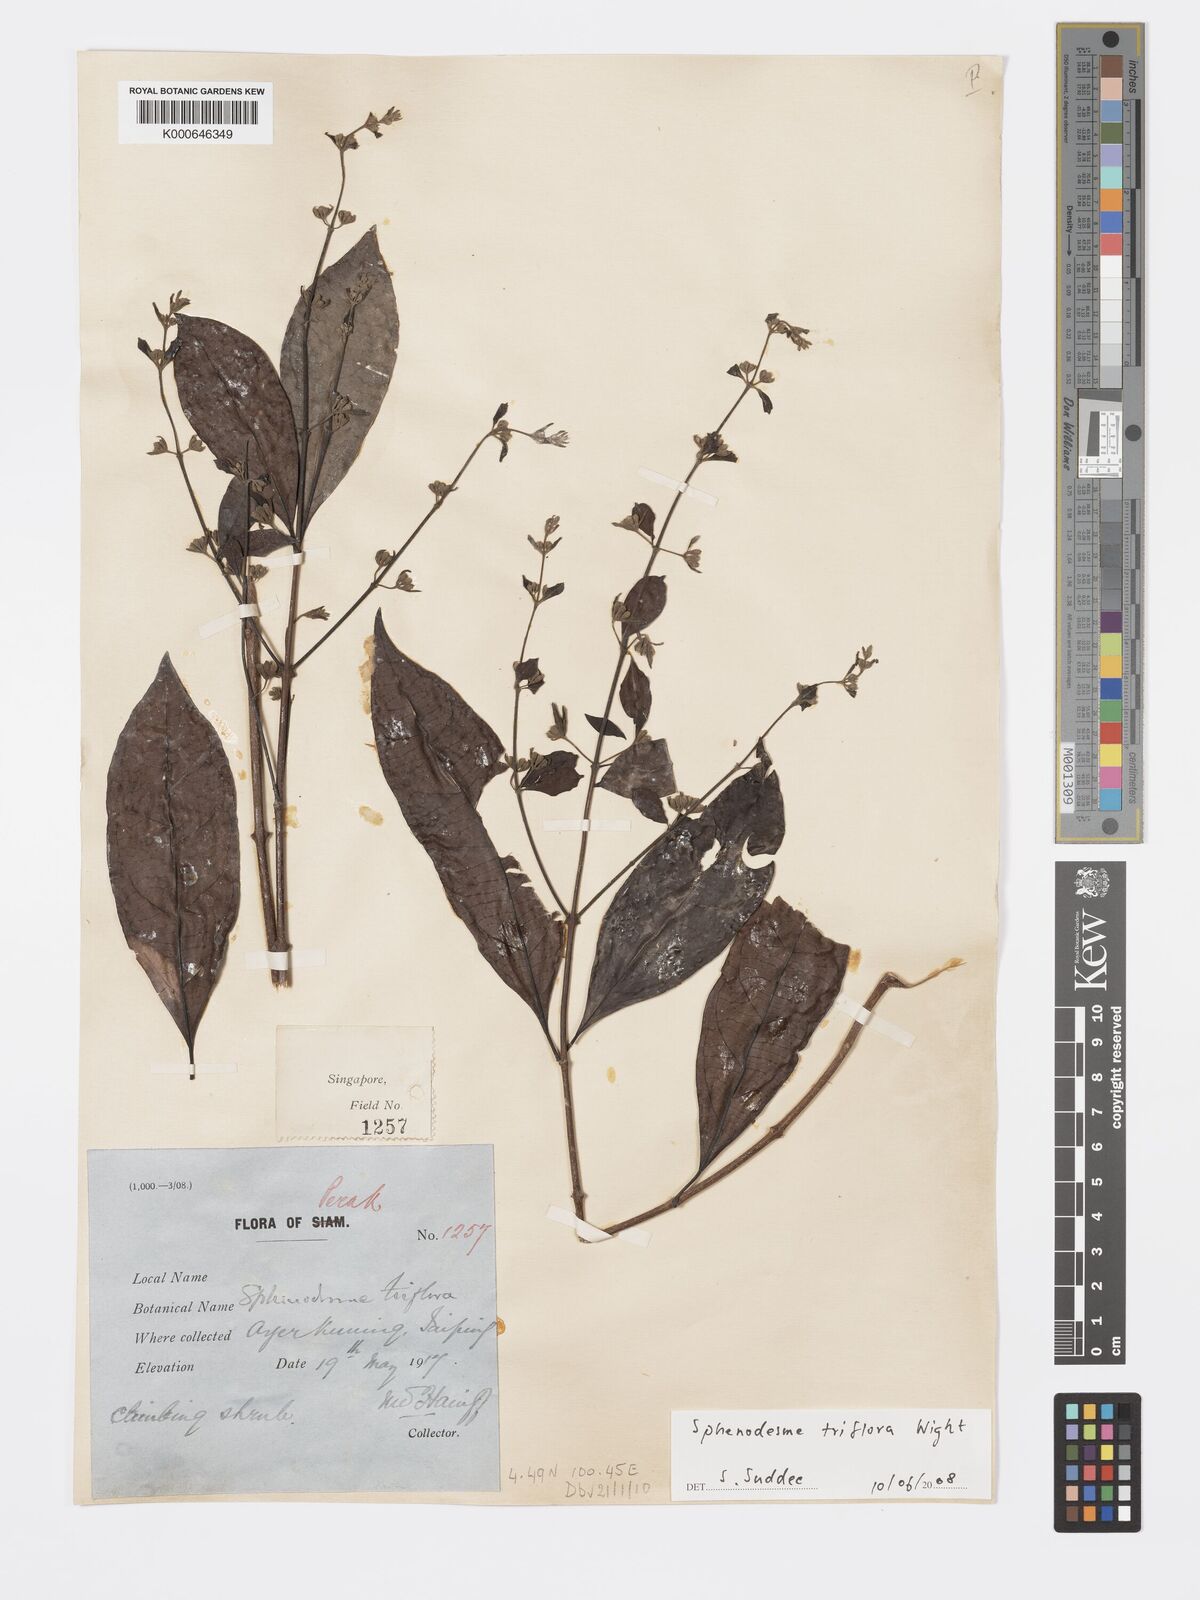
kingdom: Plantae
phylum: Tracheophyta
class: Magnoliopsida
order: Lamiales
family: Lamiaceae
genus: Sphenodesme
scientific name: Sphenodesme
